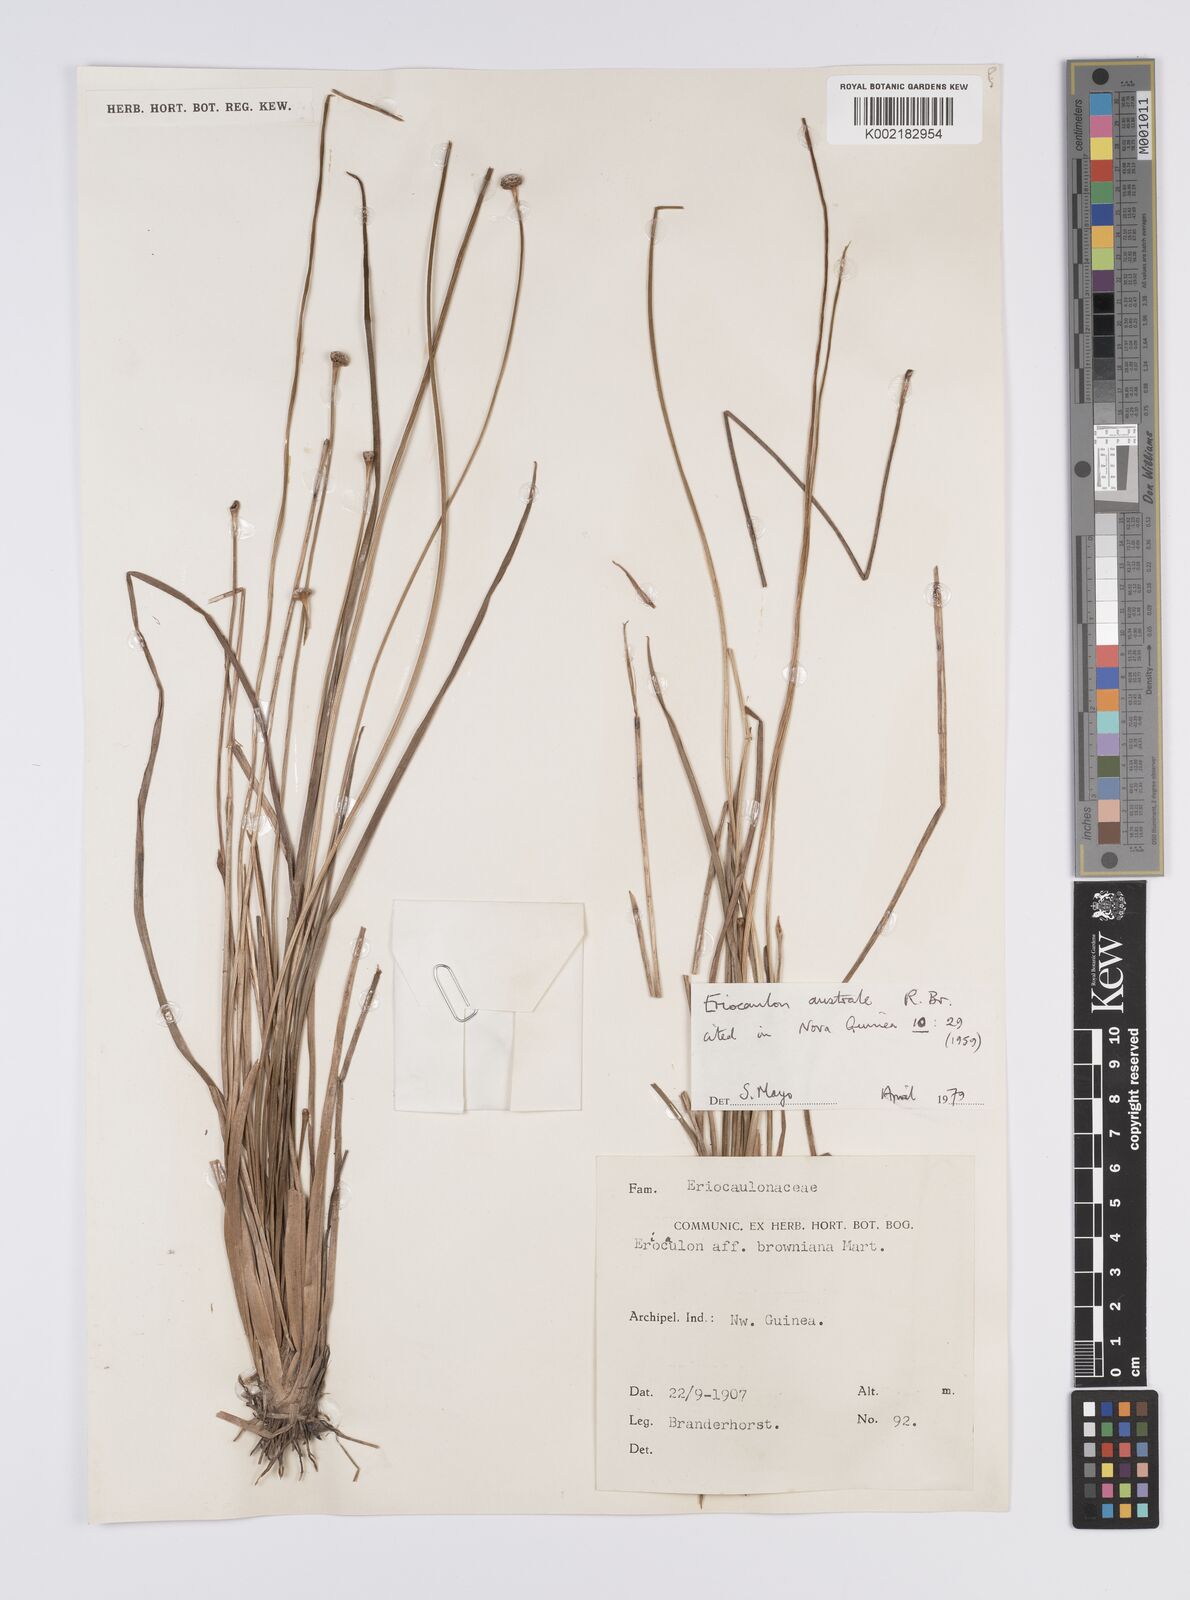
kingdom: Plantae
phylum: Tracheophyta
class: Liliopsida
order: Poales
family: Eriocaulaceae
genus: Eriocaulon
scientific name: Eriocaulon australe
